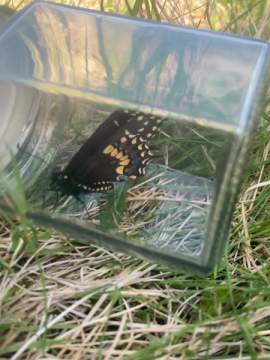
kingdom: Animalia
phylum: Arthropoda
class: Insecta
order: Lepidoptera
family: Papilionidae
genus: Papilio
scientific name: Papilio polyxenes
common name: Black Swallowtail
